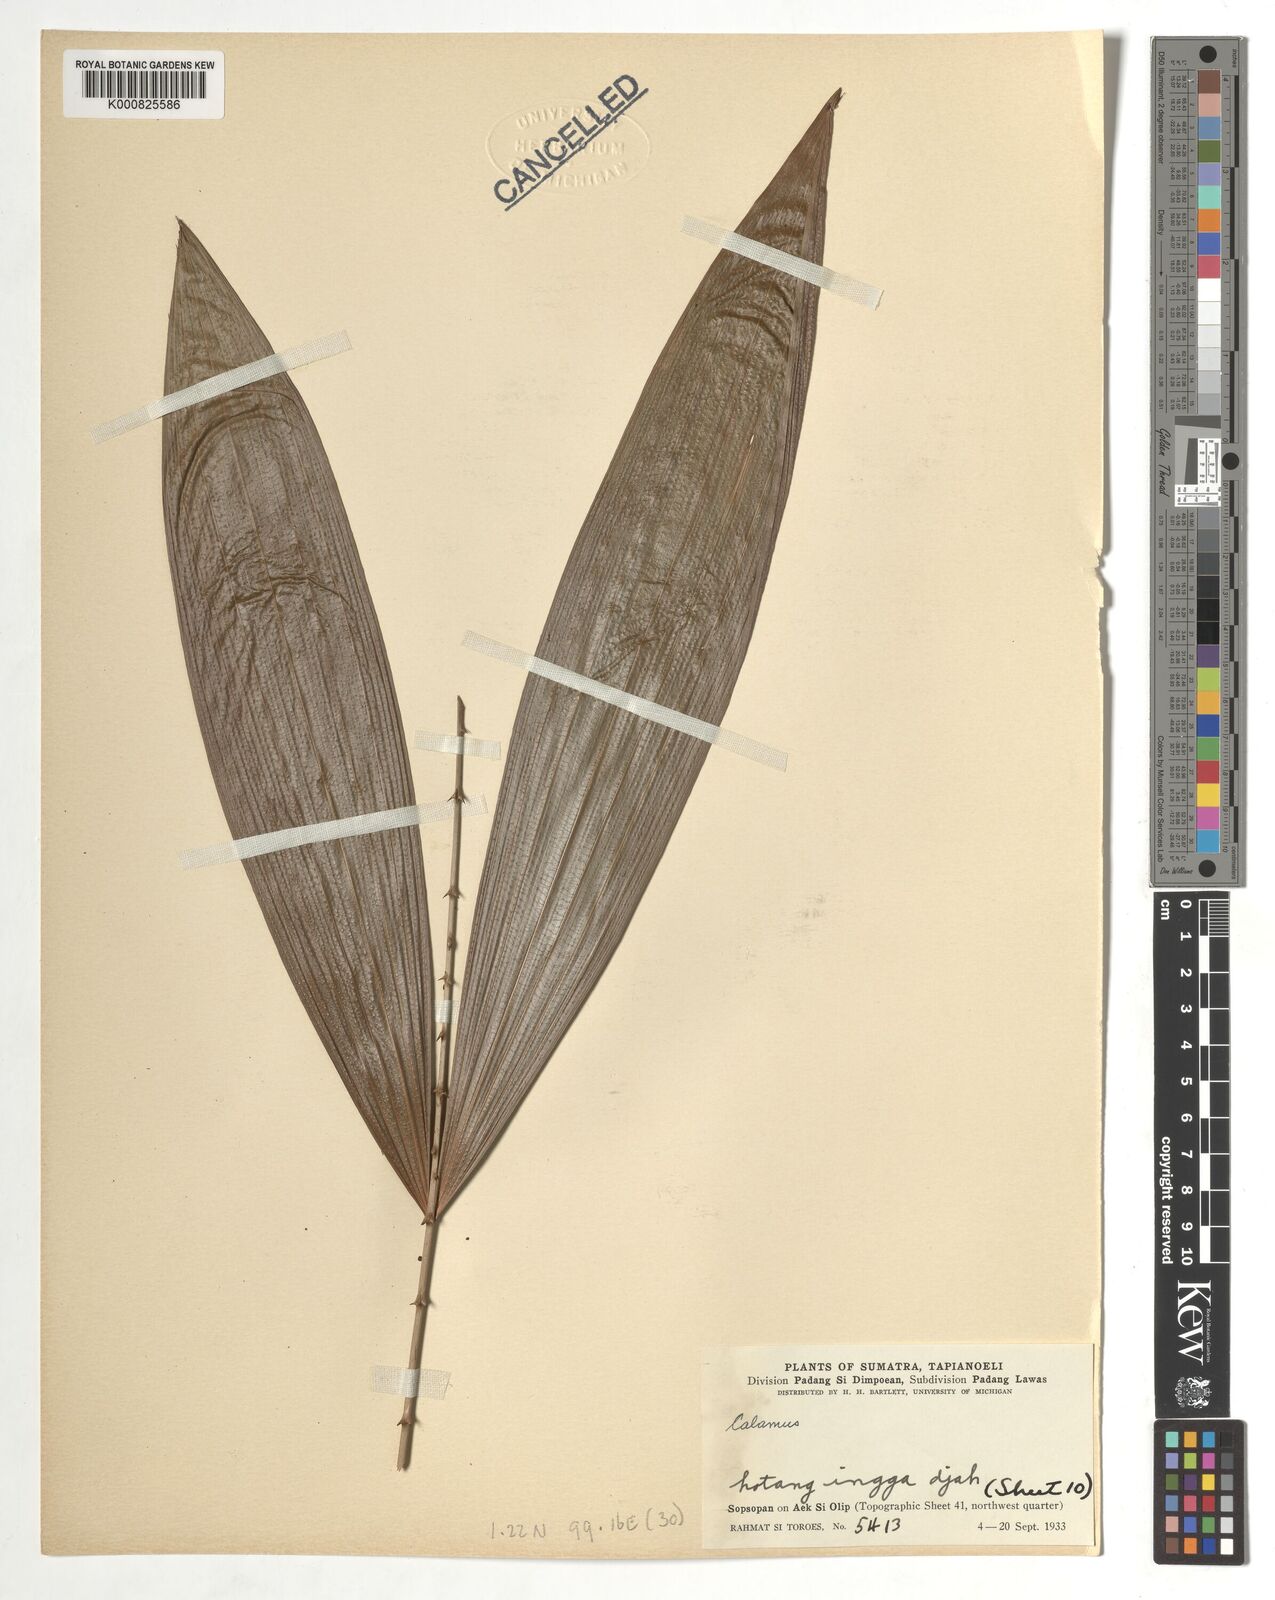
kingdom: Plantae
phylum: Tracheophyta
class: Liliopsida
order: Arecales
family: Arecaceae
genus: Calamus
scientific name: Calamus
